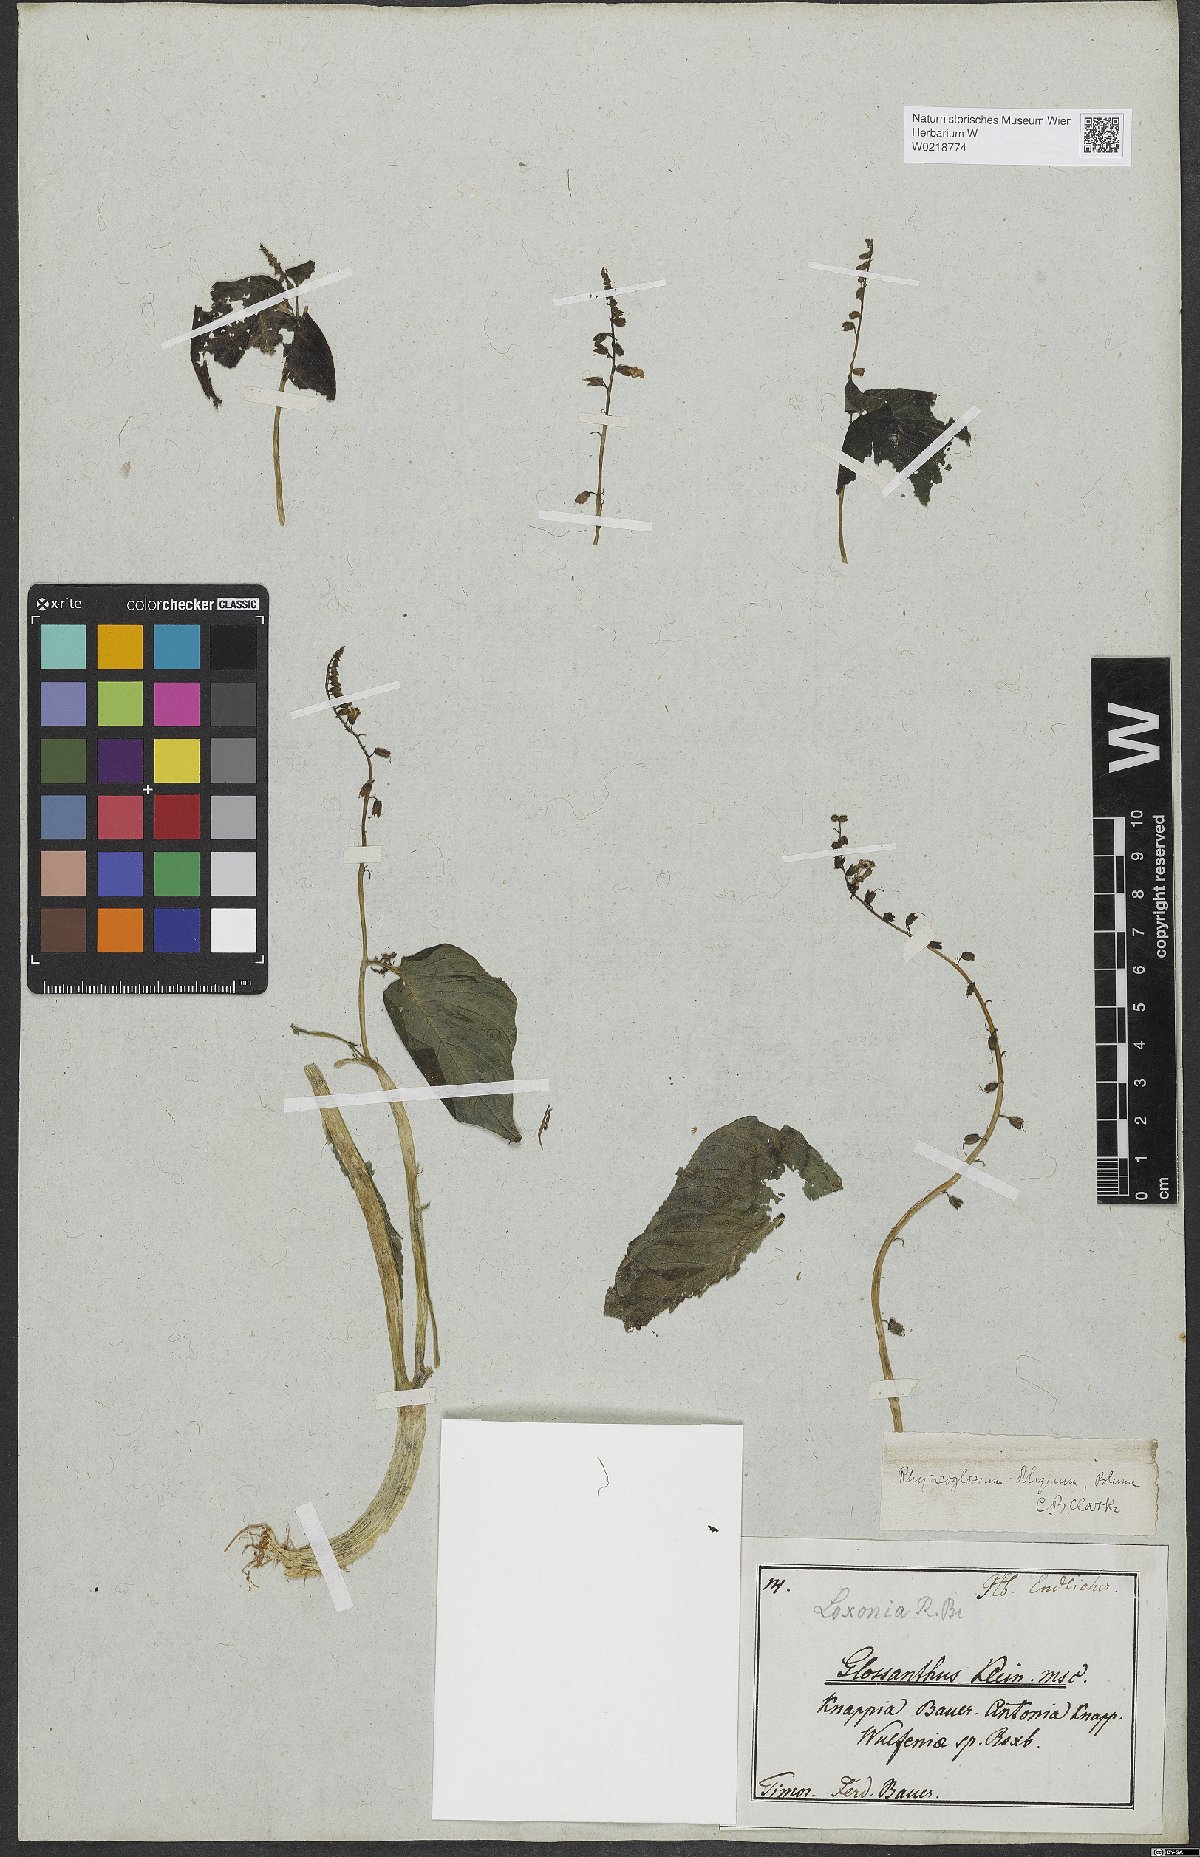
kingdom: Plantae
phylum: Tracheophyta
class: Magnoliopsida
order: Lamiales
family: Gesneriaceae
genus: Rhynchoglossum
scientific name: Rhynchoglossum obliquum
